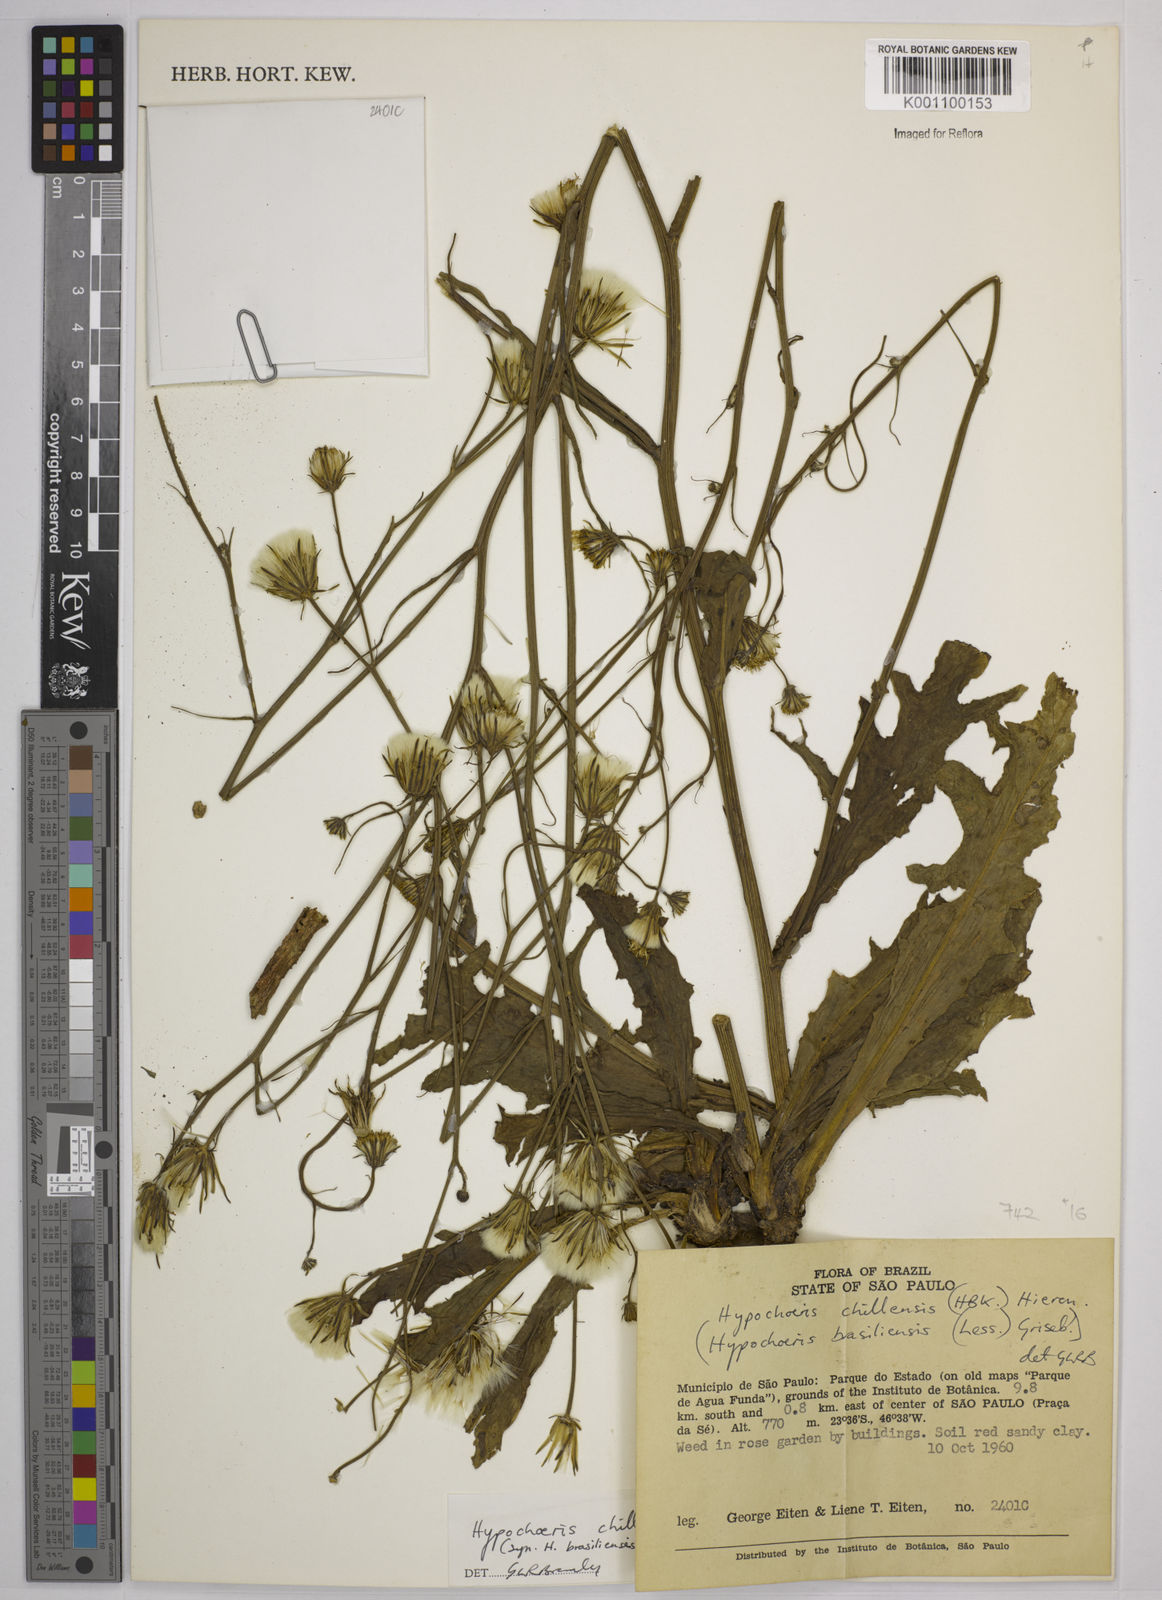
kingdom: Plantae
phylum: Tracheophyta
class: Magnoliopsida
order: Asterales
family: Asteraceae
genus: Hypochaeris
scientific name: Hypochaeris chillensis
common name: Brazilian cat's ear
